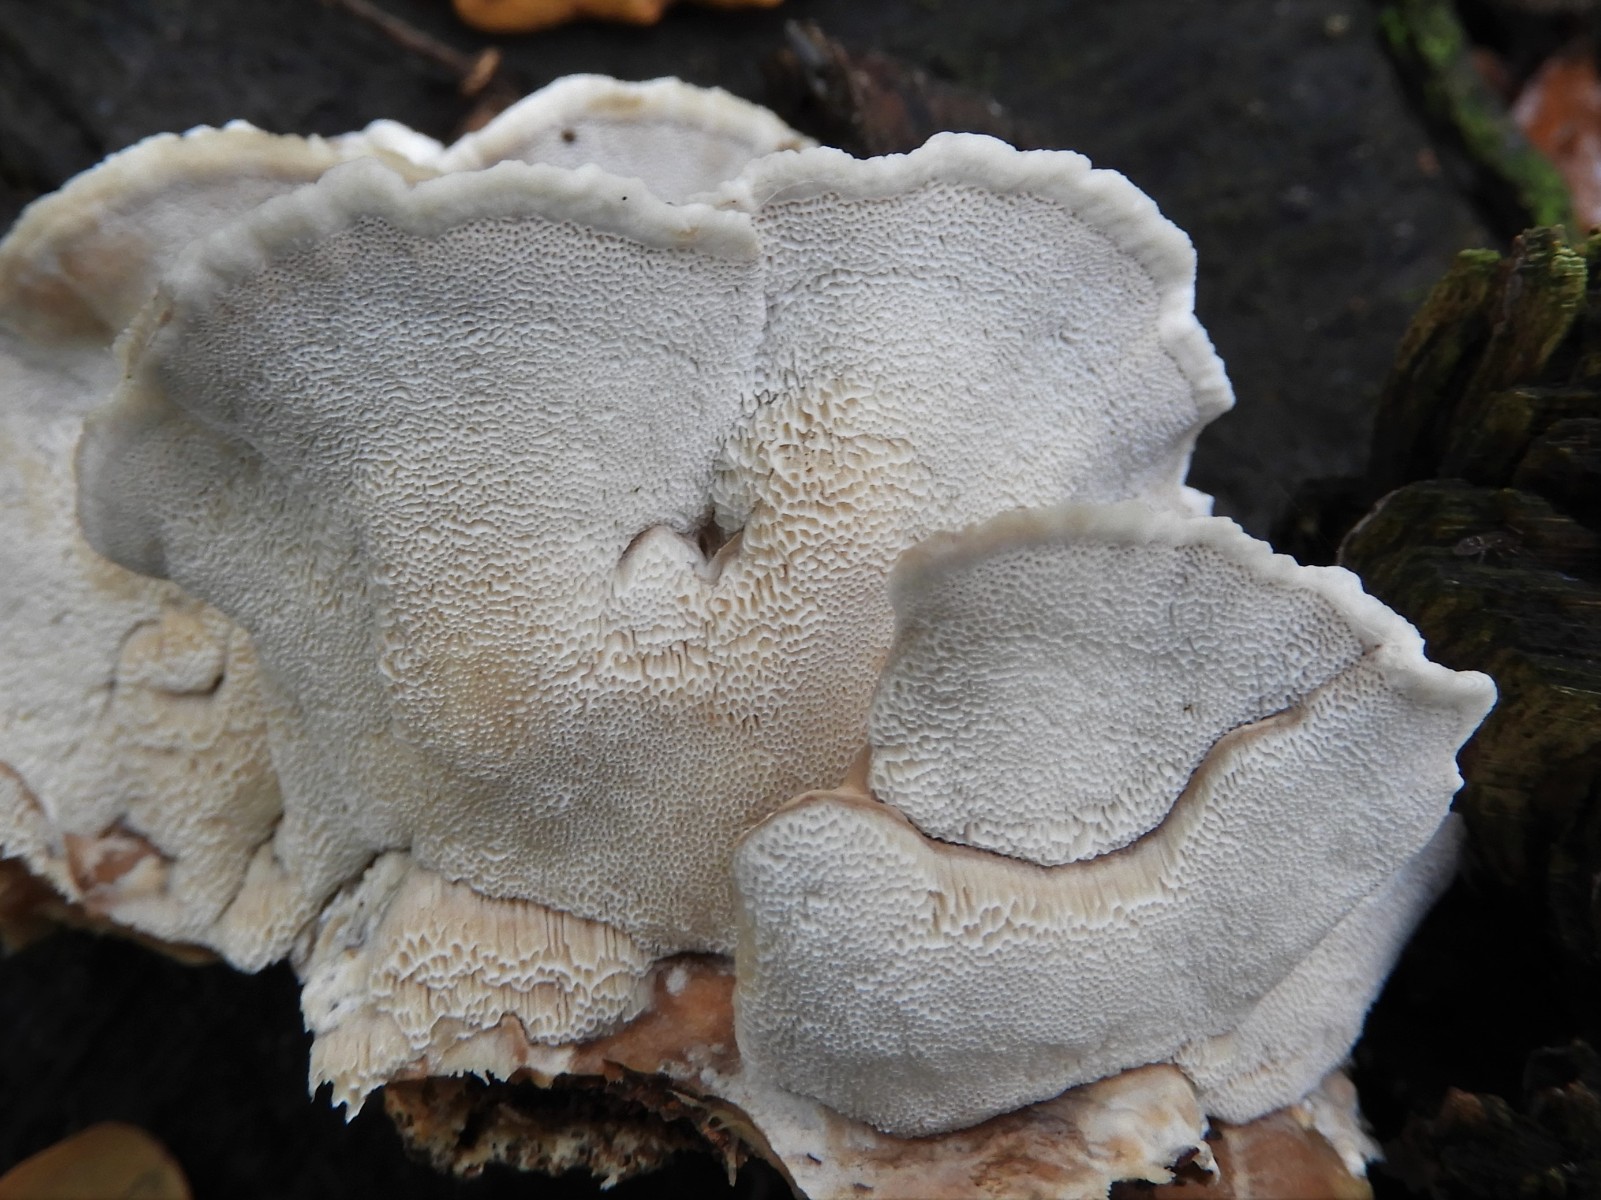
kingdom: Fungi
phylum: Basidiomycota
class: Agaricomycetes
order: Polyporales
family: Phanerochaetaceae
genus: Bjerkandera
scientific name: Bjerkandera fumosa
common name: grågul sodporesvamp
